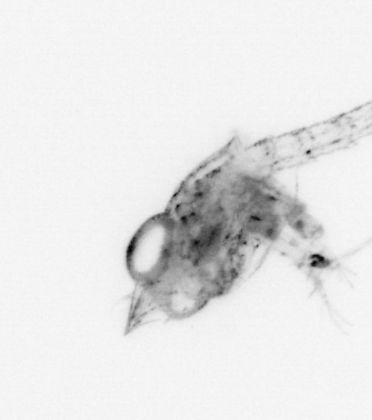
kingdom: Animalia
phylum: Arthropoda
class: Malacostraca
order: Decapoda
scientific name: Decapoda
